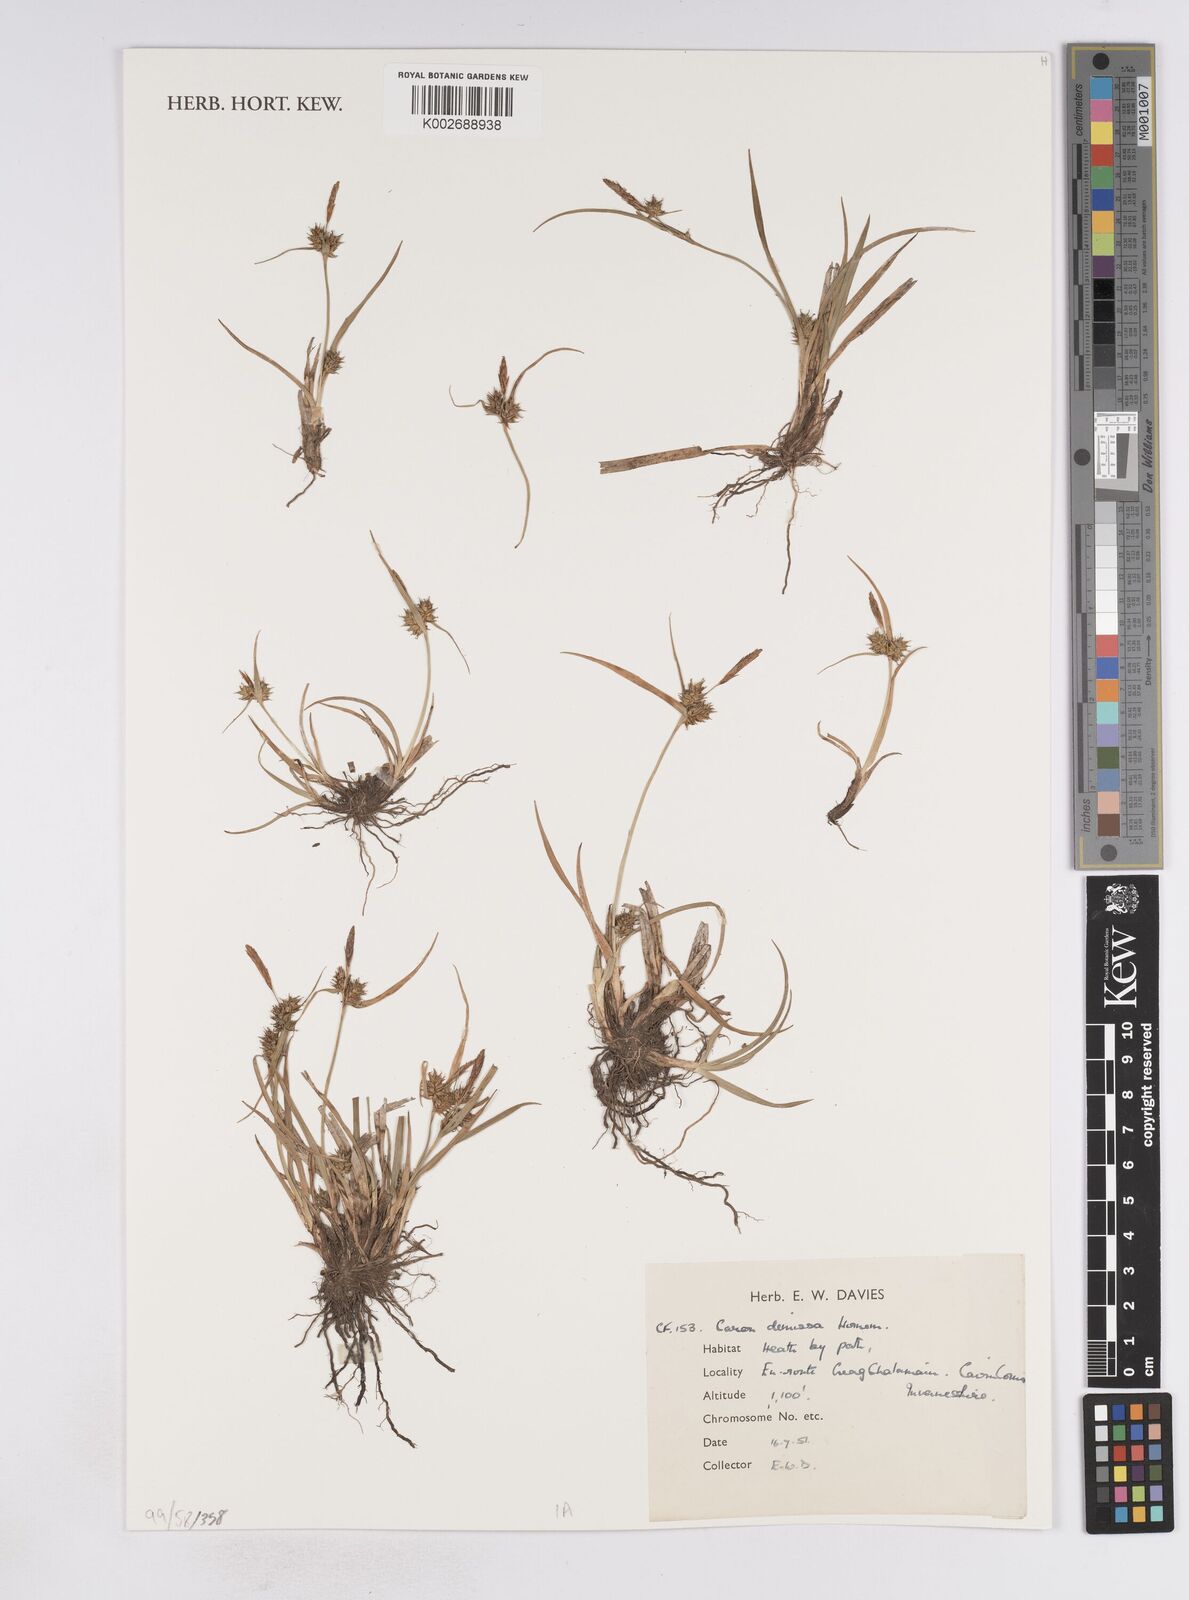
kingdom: Plantae
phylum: Tracheophyta
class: Liliopsida
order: Poales
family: Cyperaceae
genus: Carex
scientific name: Carex demissa
